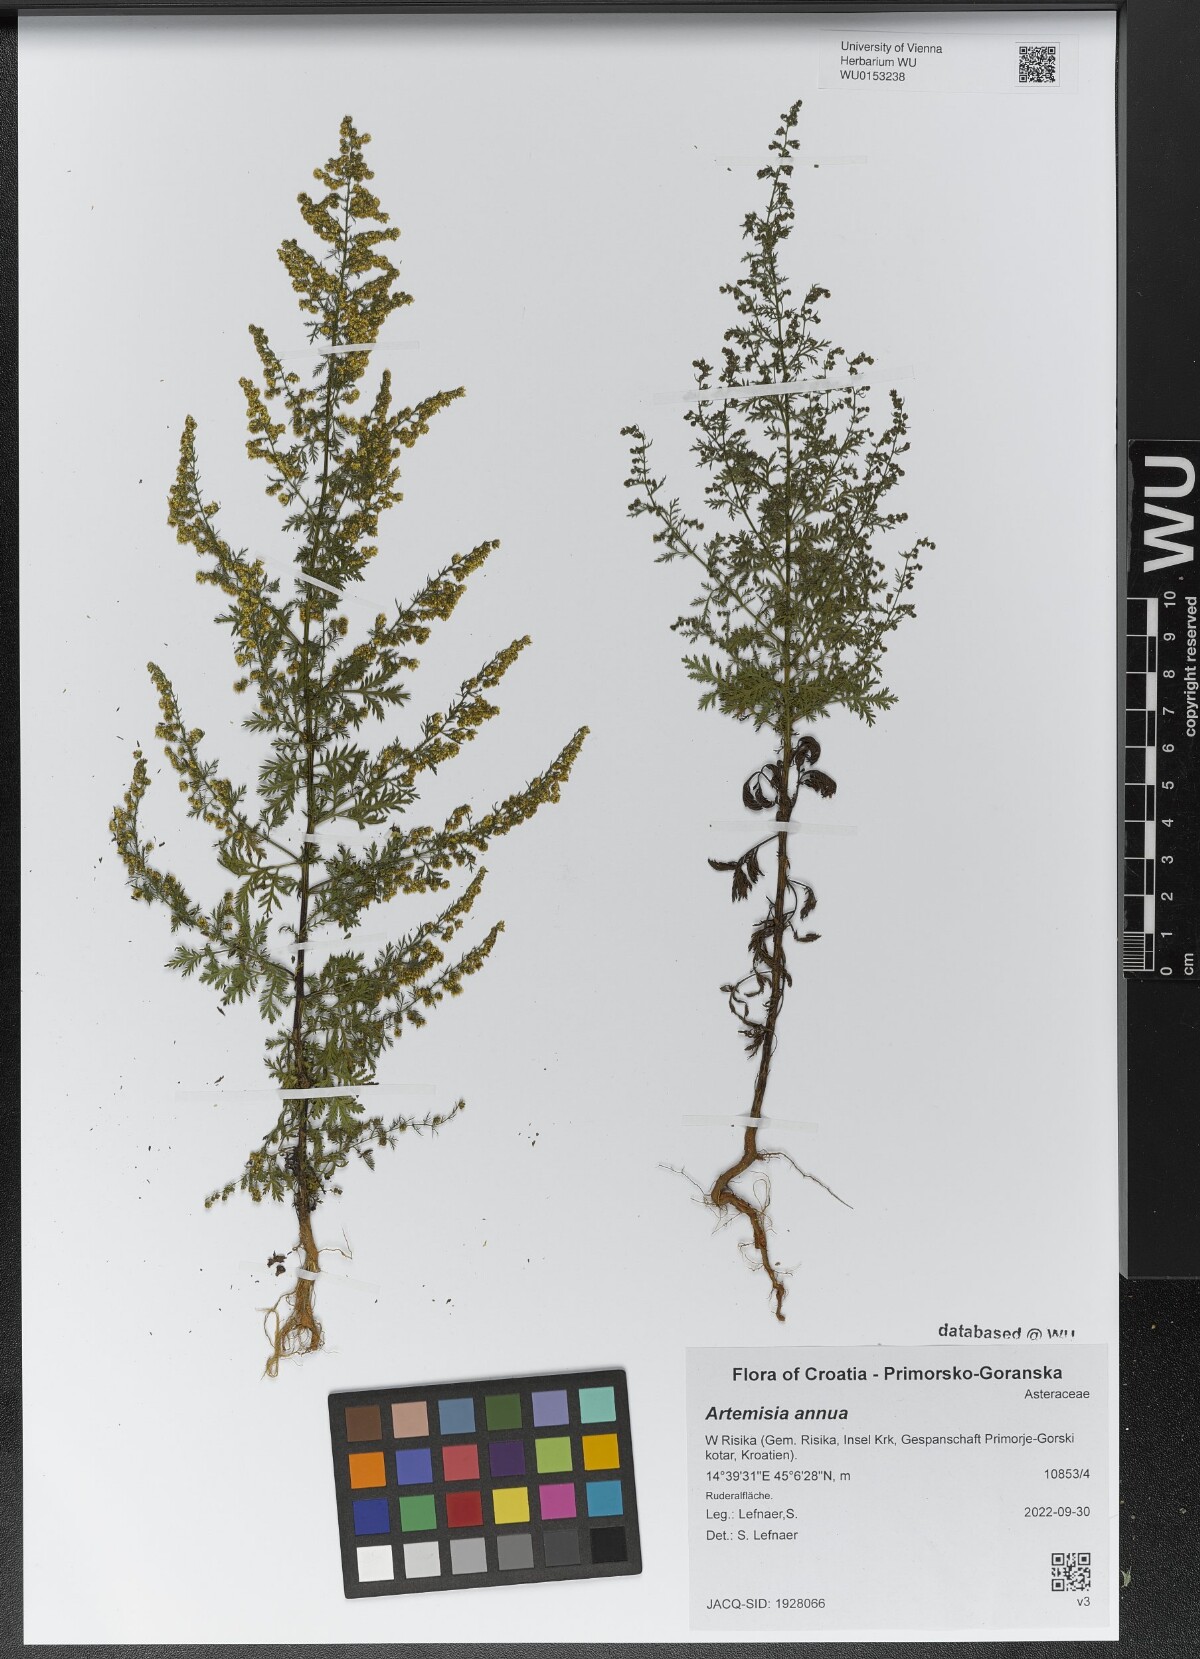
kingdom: Plantae
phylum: Tracheophyta
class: Magnoliopsida
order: Asterales
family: Asteraceae
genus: Artemisia
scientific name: Artemisia annua
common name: Sweet sagewort
